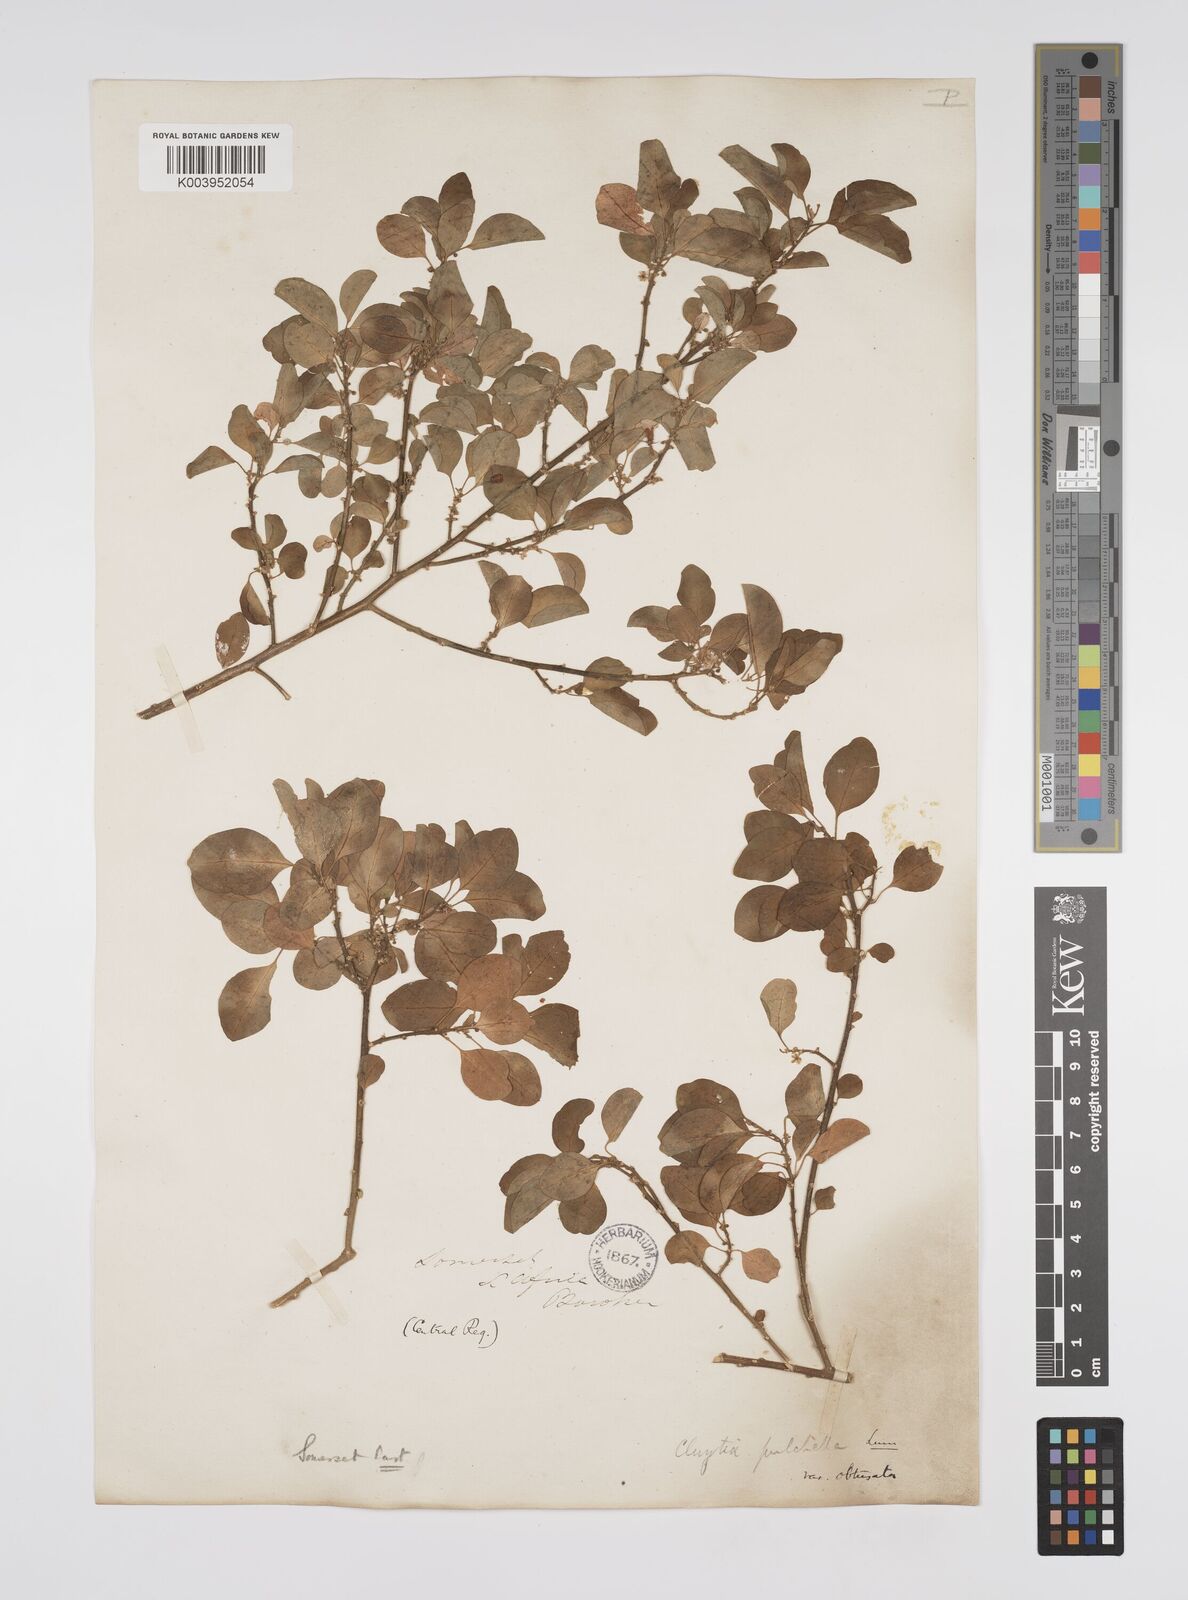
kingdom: Plantae
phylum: Tracheophyta
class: Magnoliopsida
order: Malpighiales
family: Peraceae
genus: Clutia
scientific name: Clutia pulchella
